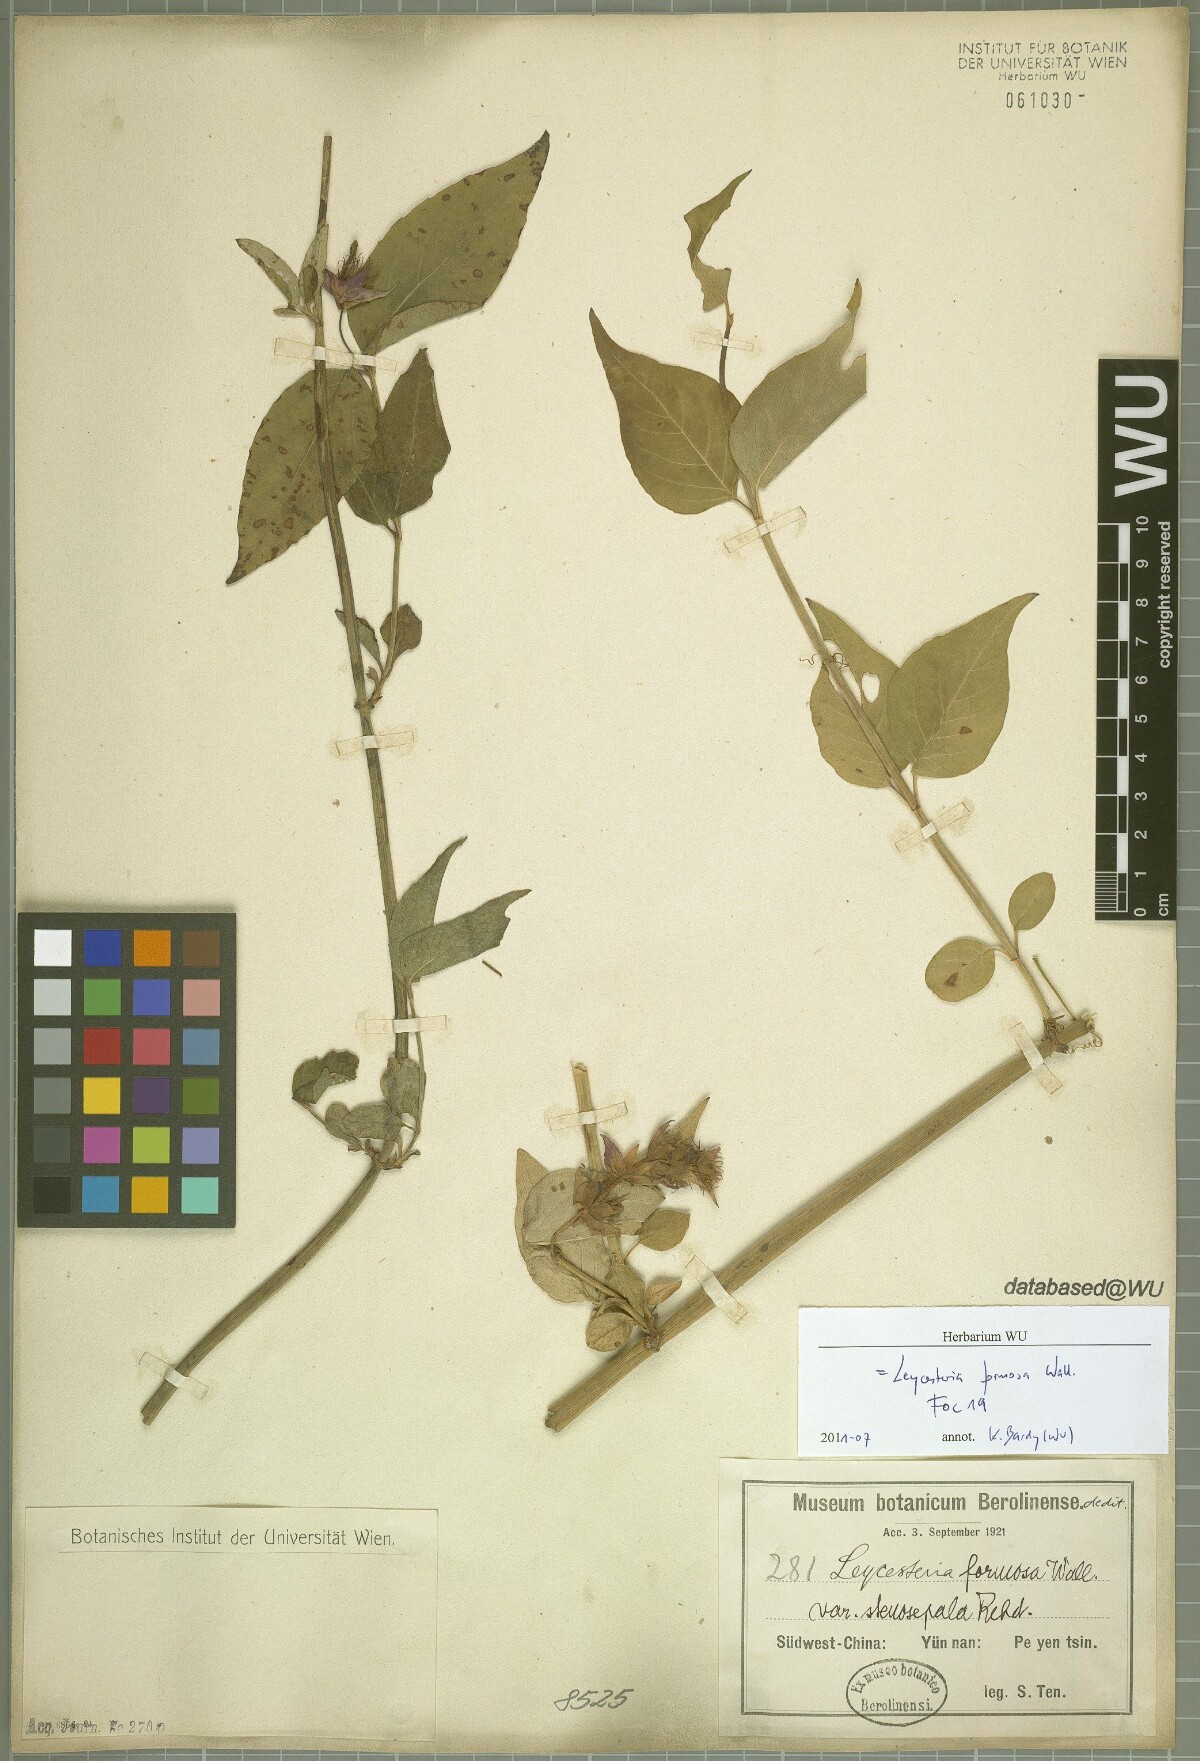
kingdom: Plantae
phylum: Tracheophyta
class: Magnoliopsida
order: Dipsacales
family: Caprifoliaceae
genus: Leycesteria
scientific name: Leycesteria formosa
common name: Himalayan honeysuckle
